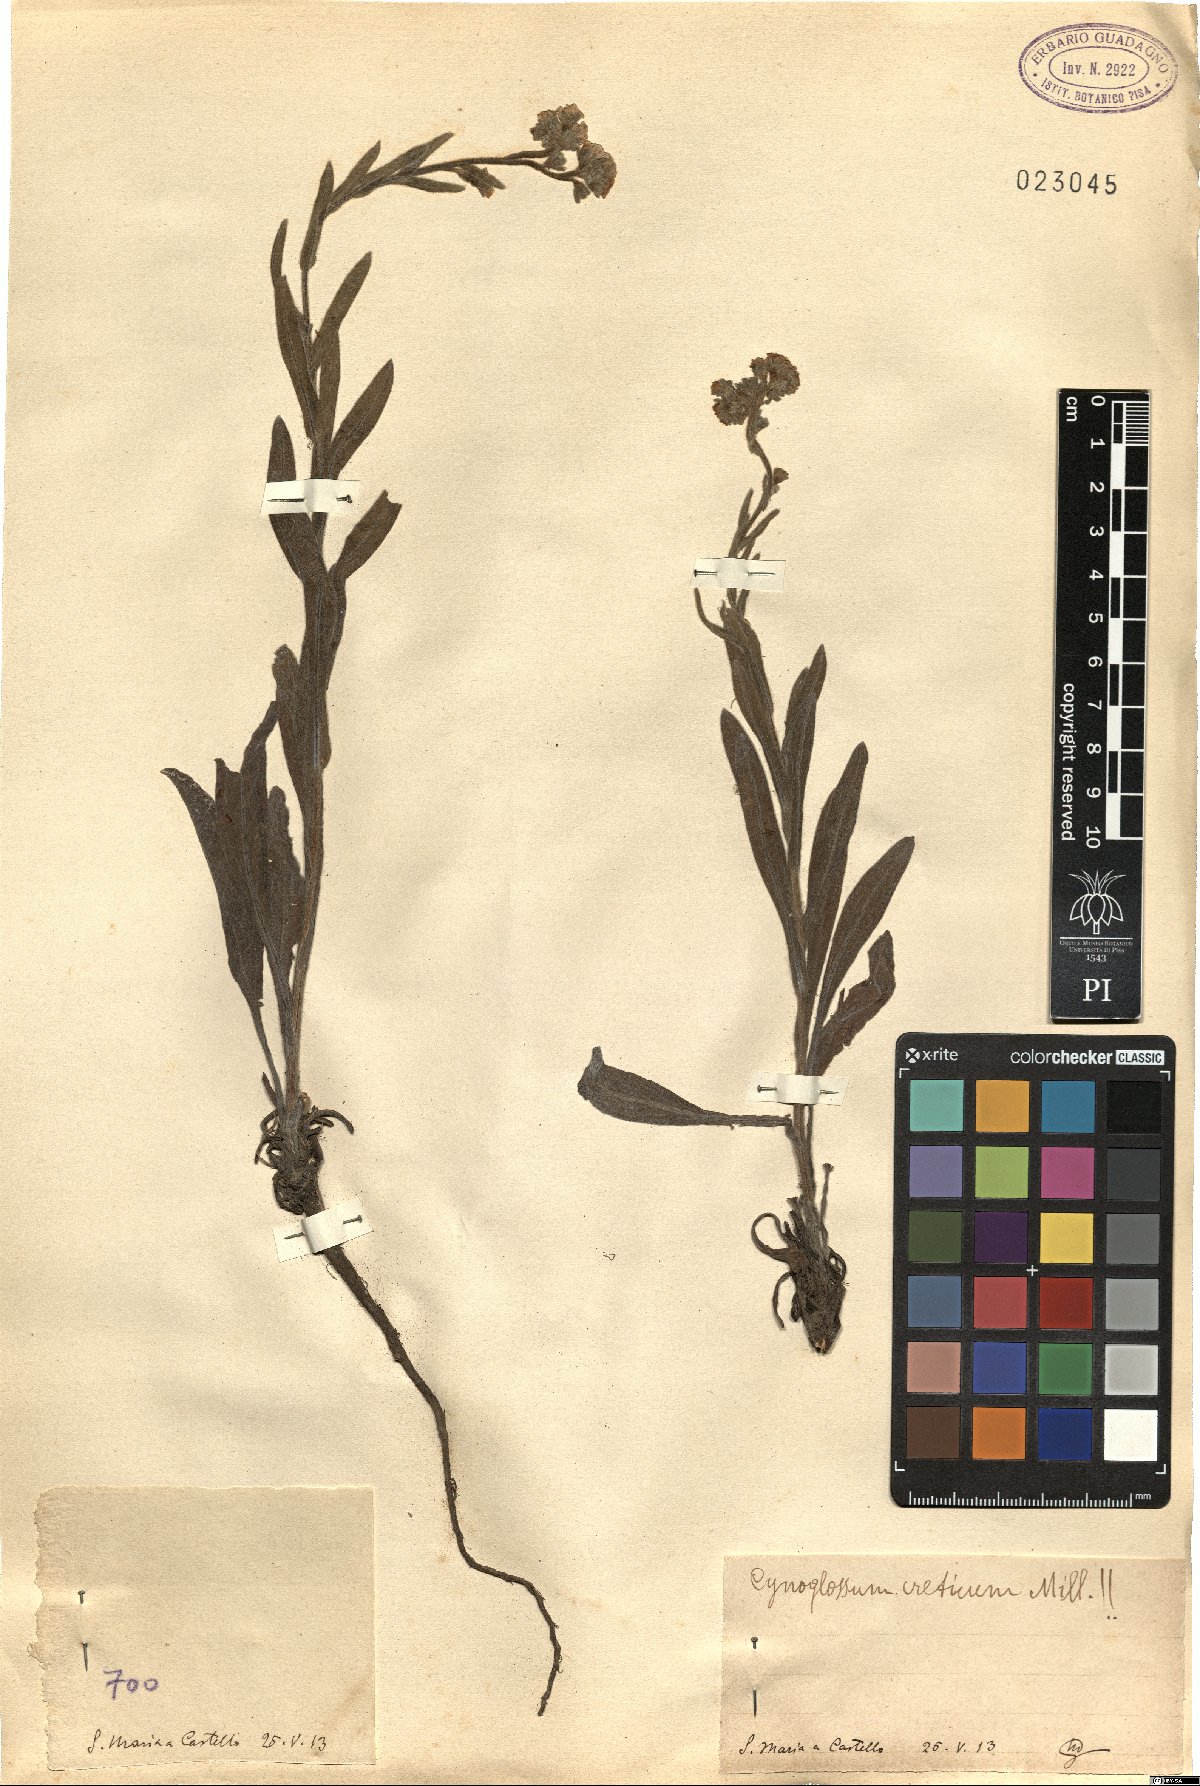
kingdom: Plantae
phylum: Tracheophyta
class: Magnoliopsida
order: Boraginales
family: Boraginaceae
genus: Cynoglossum
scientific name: Cynoglossum creticum
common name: Blue hound's tongue
